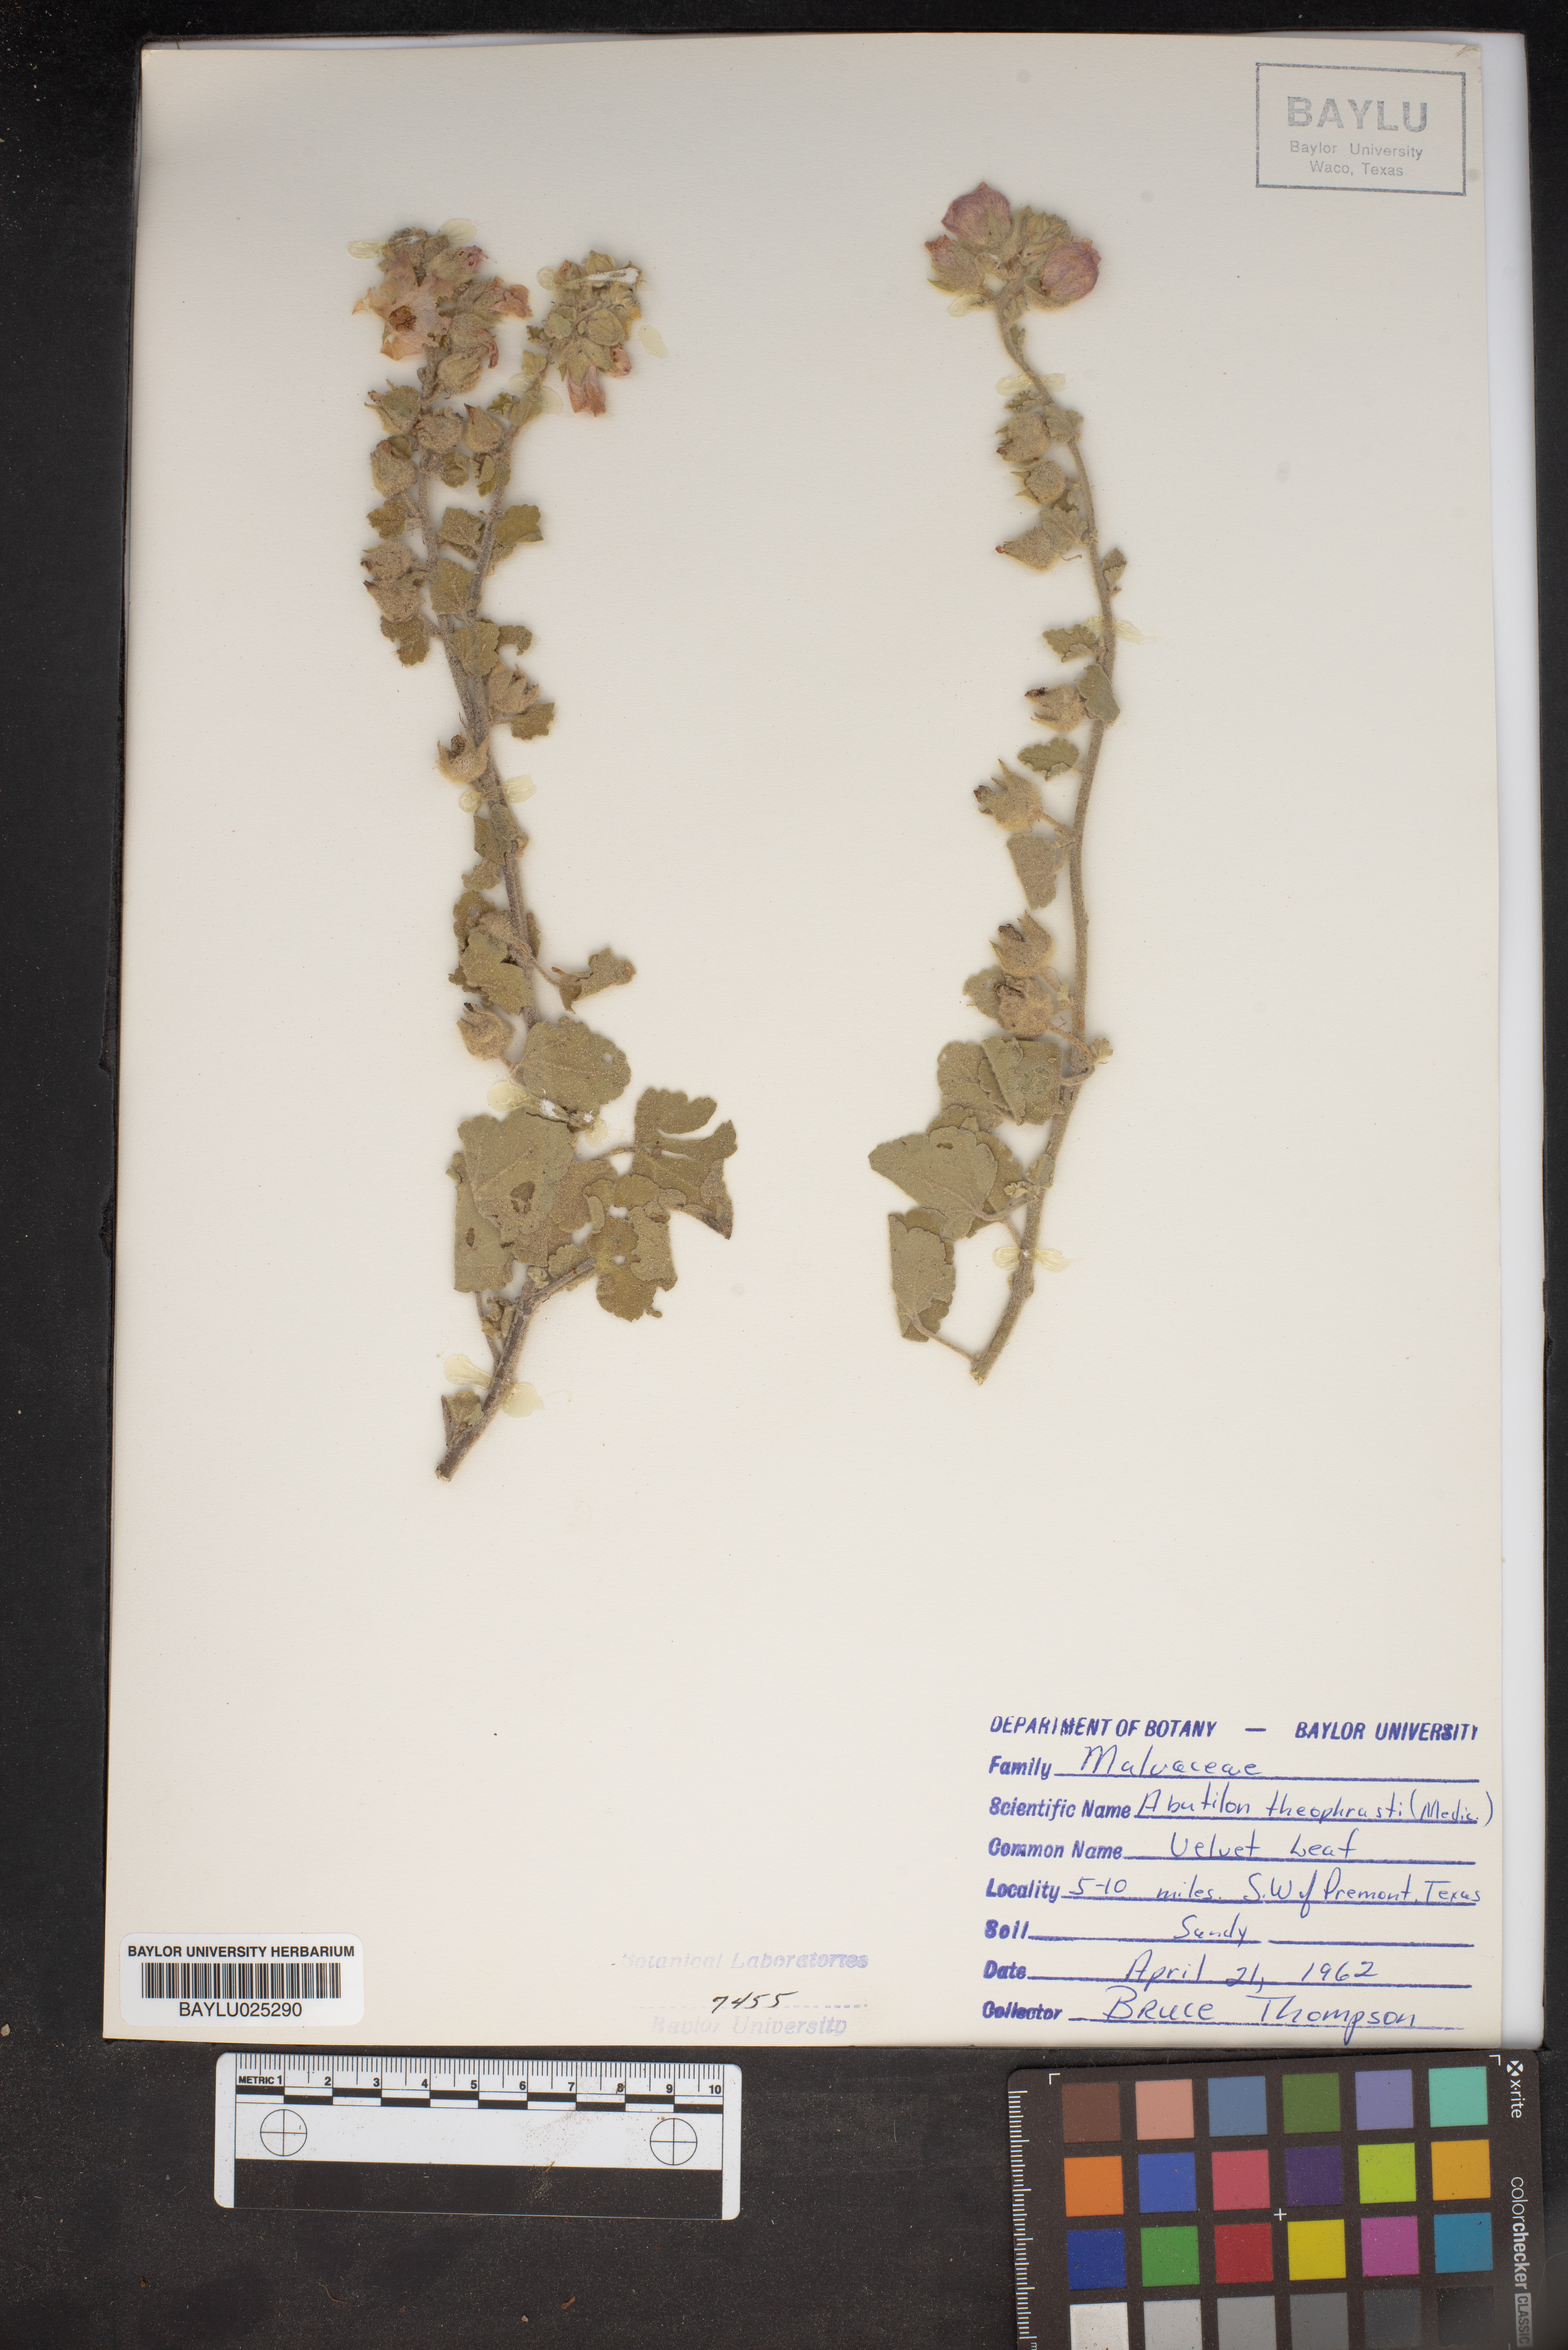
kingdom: Plantae
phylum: Tracheophyta
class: Magnoliopsida
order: Malvales
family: Malvaceae
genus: Abutilon
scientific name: Abutilon theophrasti
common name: Velvetleaf
